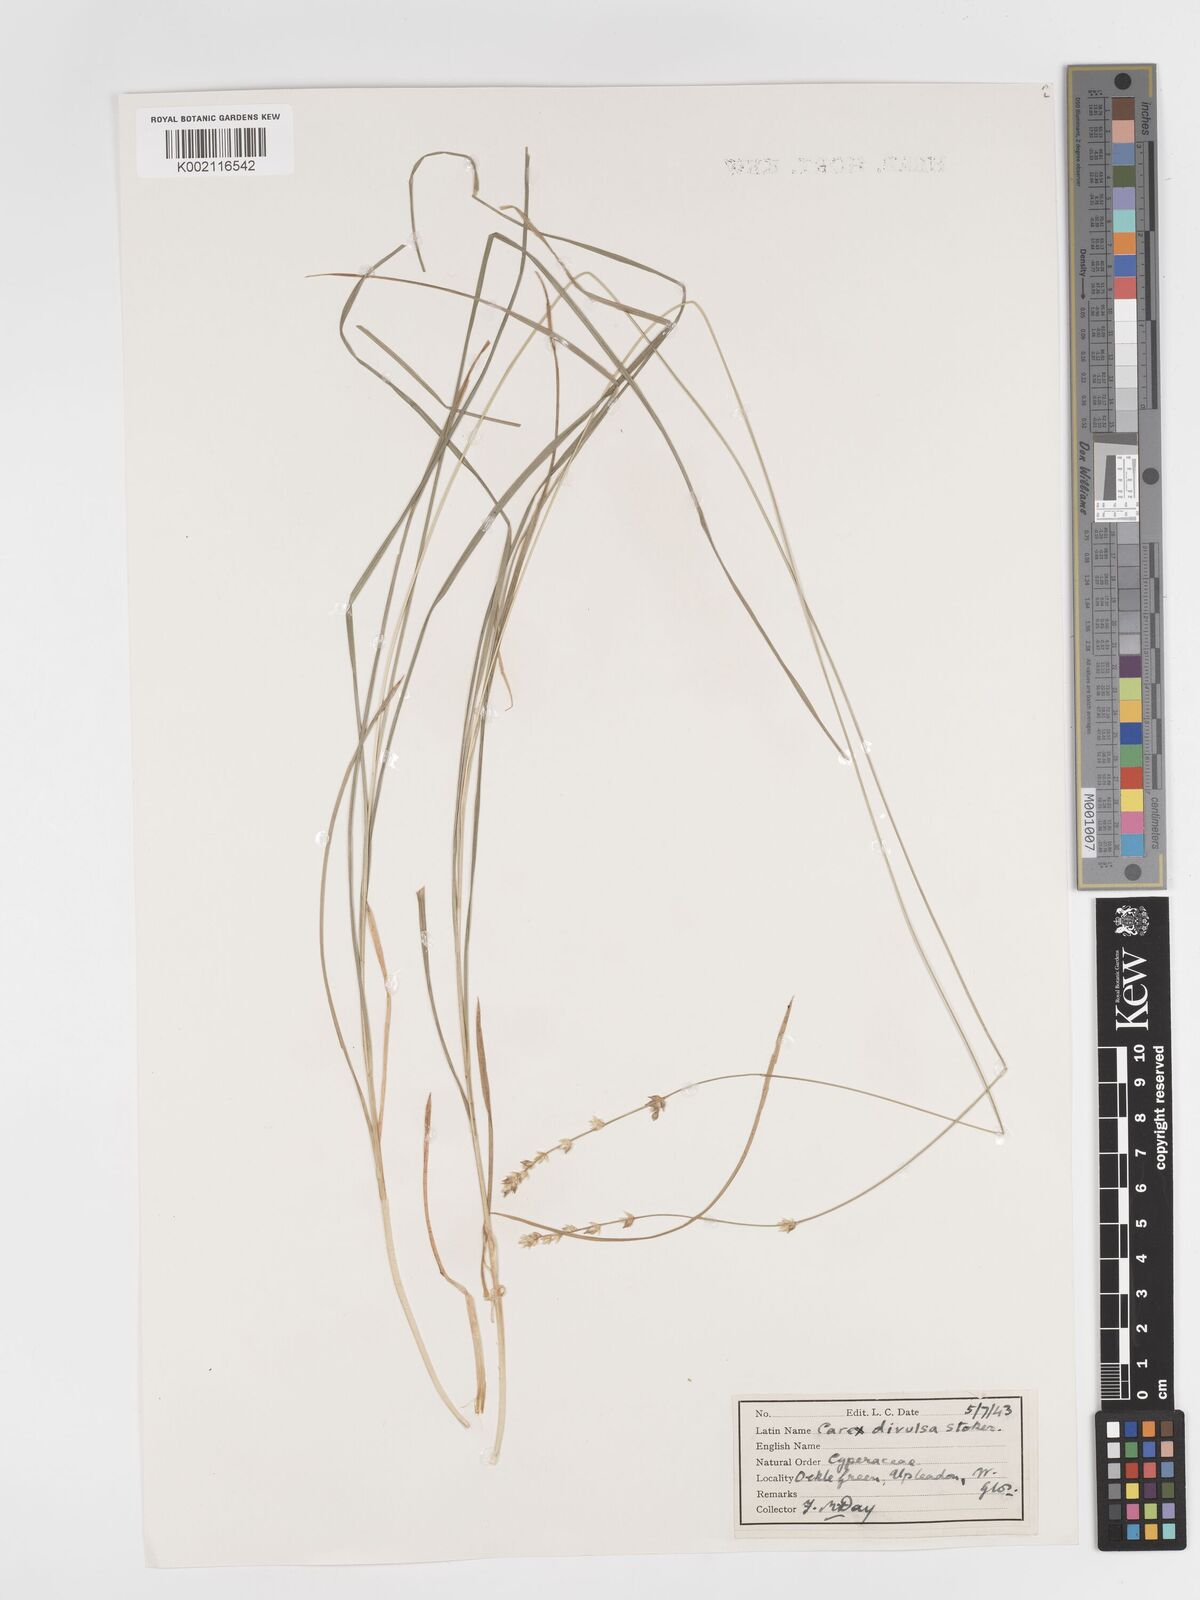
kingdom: Plantae
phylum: Tracheophyta
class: Liliopsida
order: Poales
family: Cyperaceae
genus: Carex
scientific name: Carex divulsa
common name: Grassland sedge
